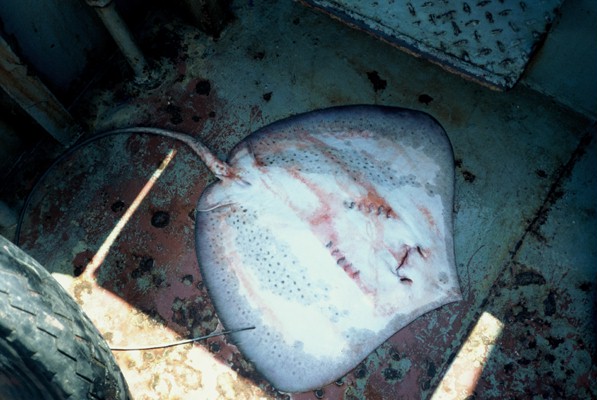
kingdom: Animalia
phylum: Chordata
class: Elasmobranchii
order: Myliobatiformes
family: Dasyatidae
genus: Himantura
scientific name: Himantura uarnak
